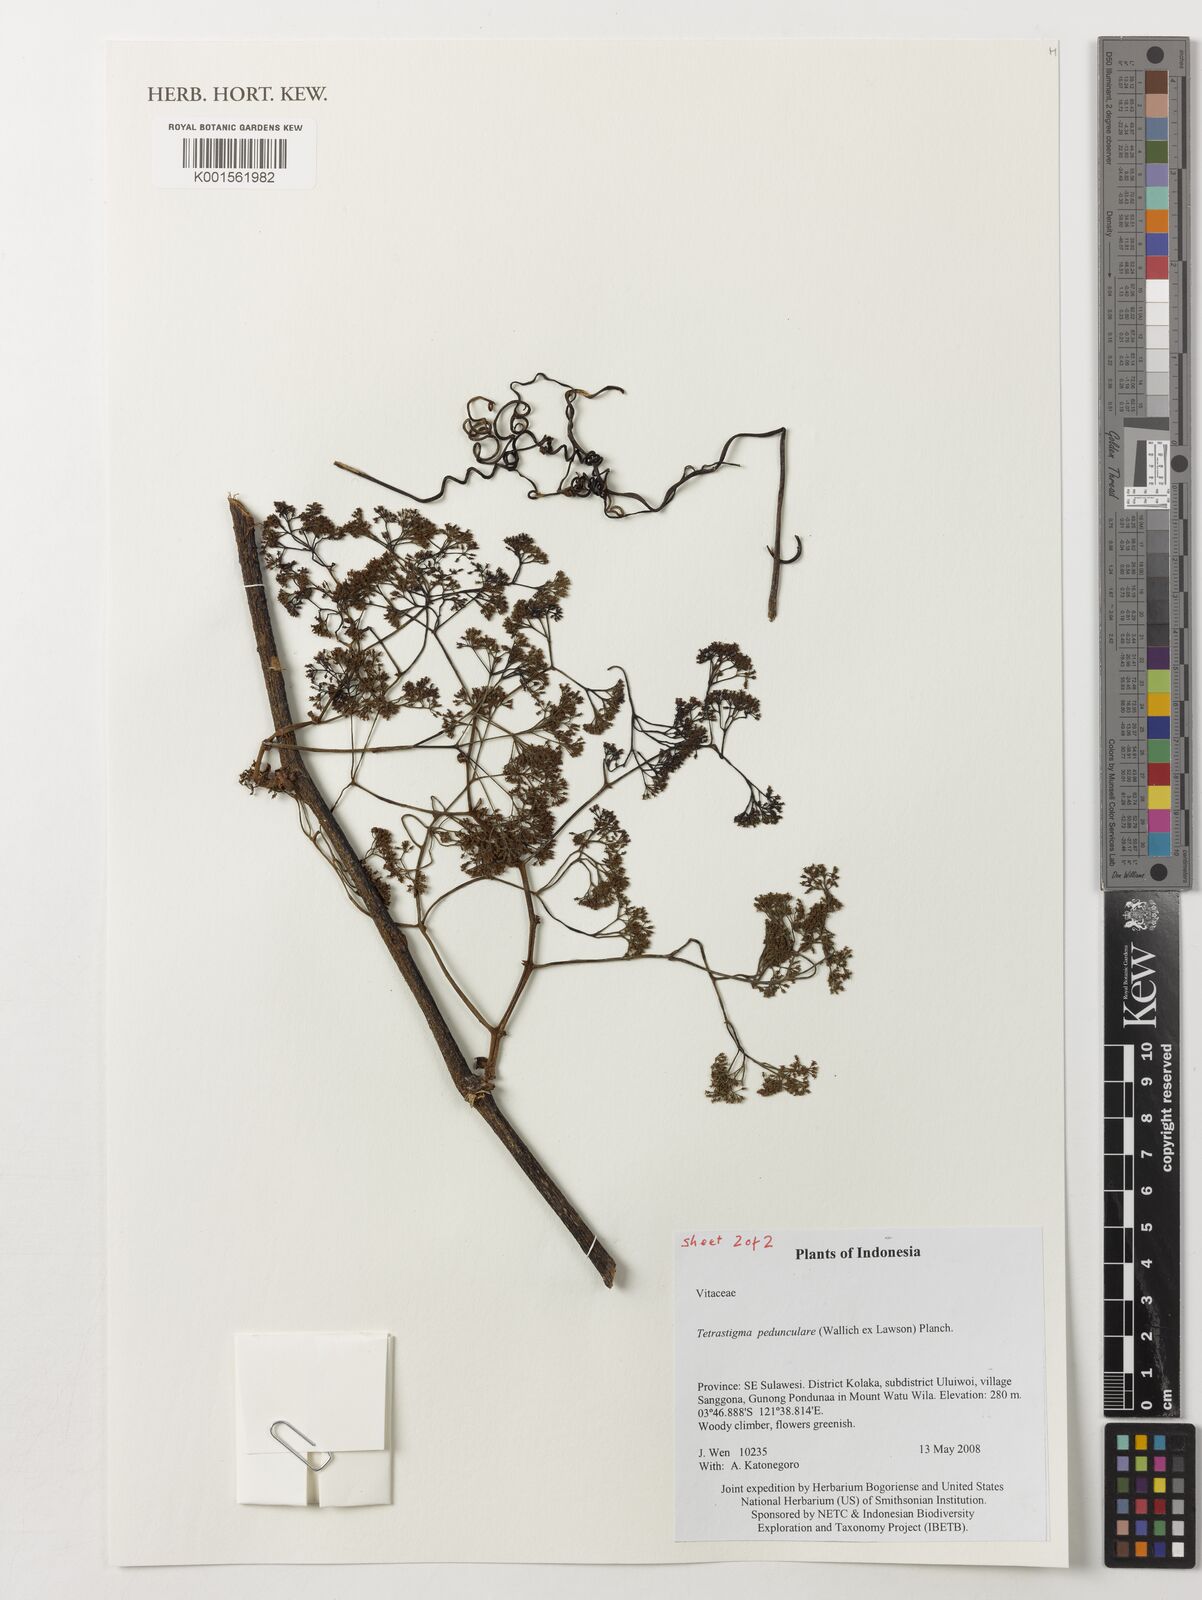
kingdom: Plantae
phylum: Tracheophyta
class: Magnoliopsida
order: Vitales
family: Vitaceae
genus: Tetrastigma
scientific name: Tetrastigma pedunculare
